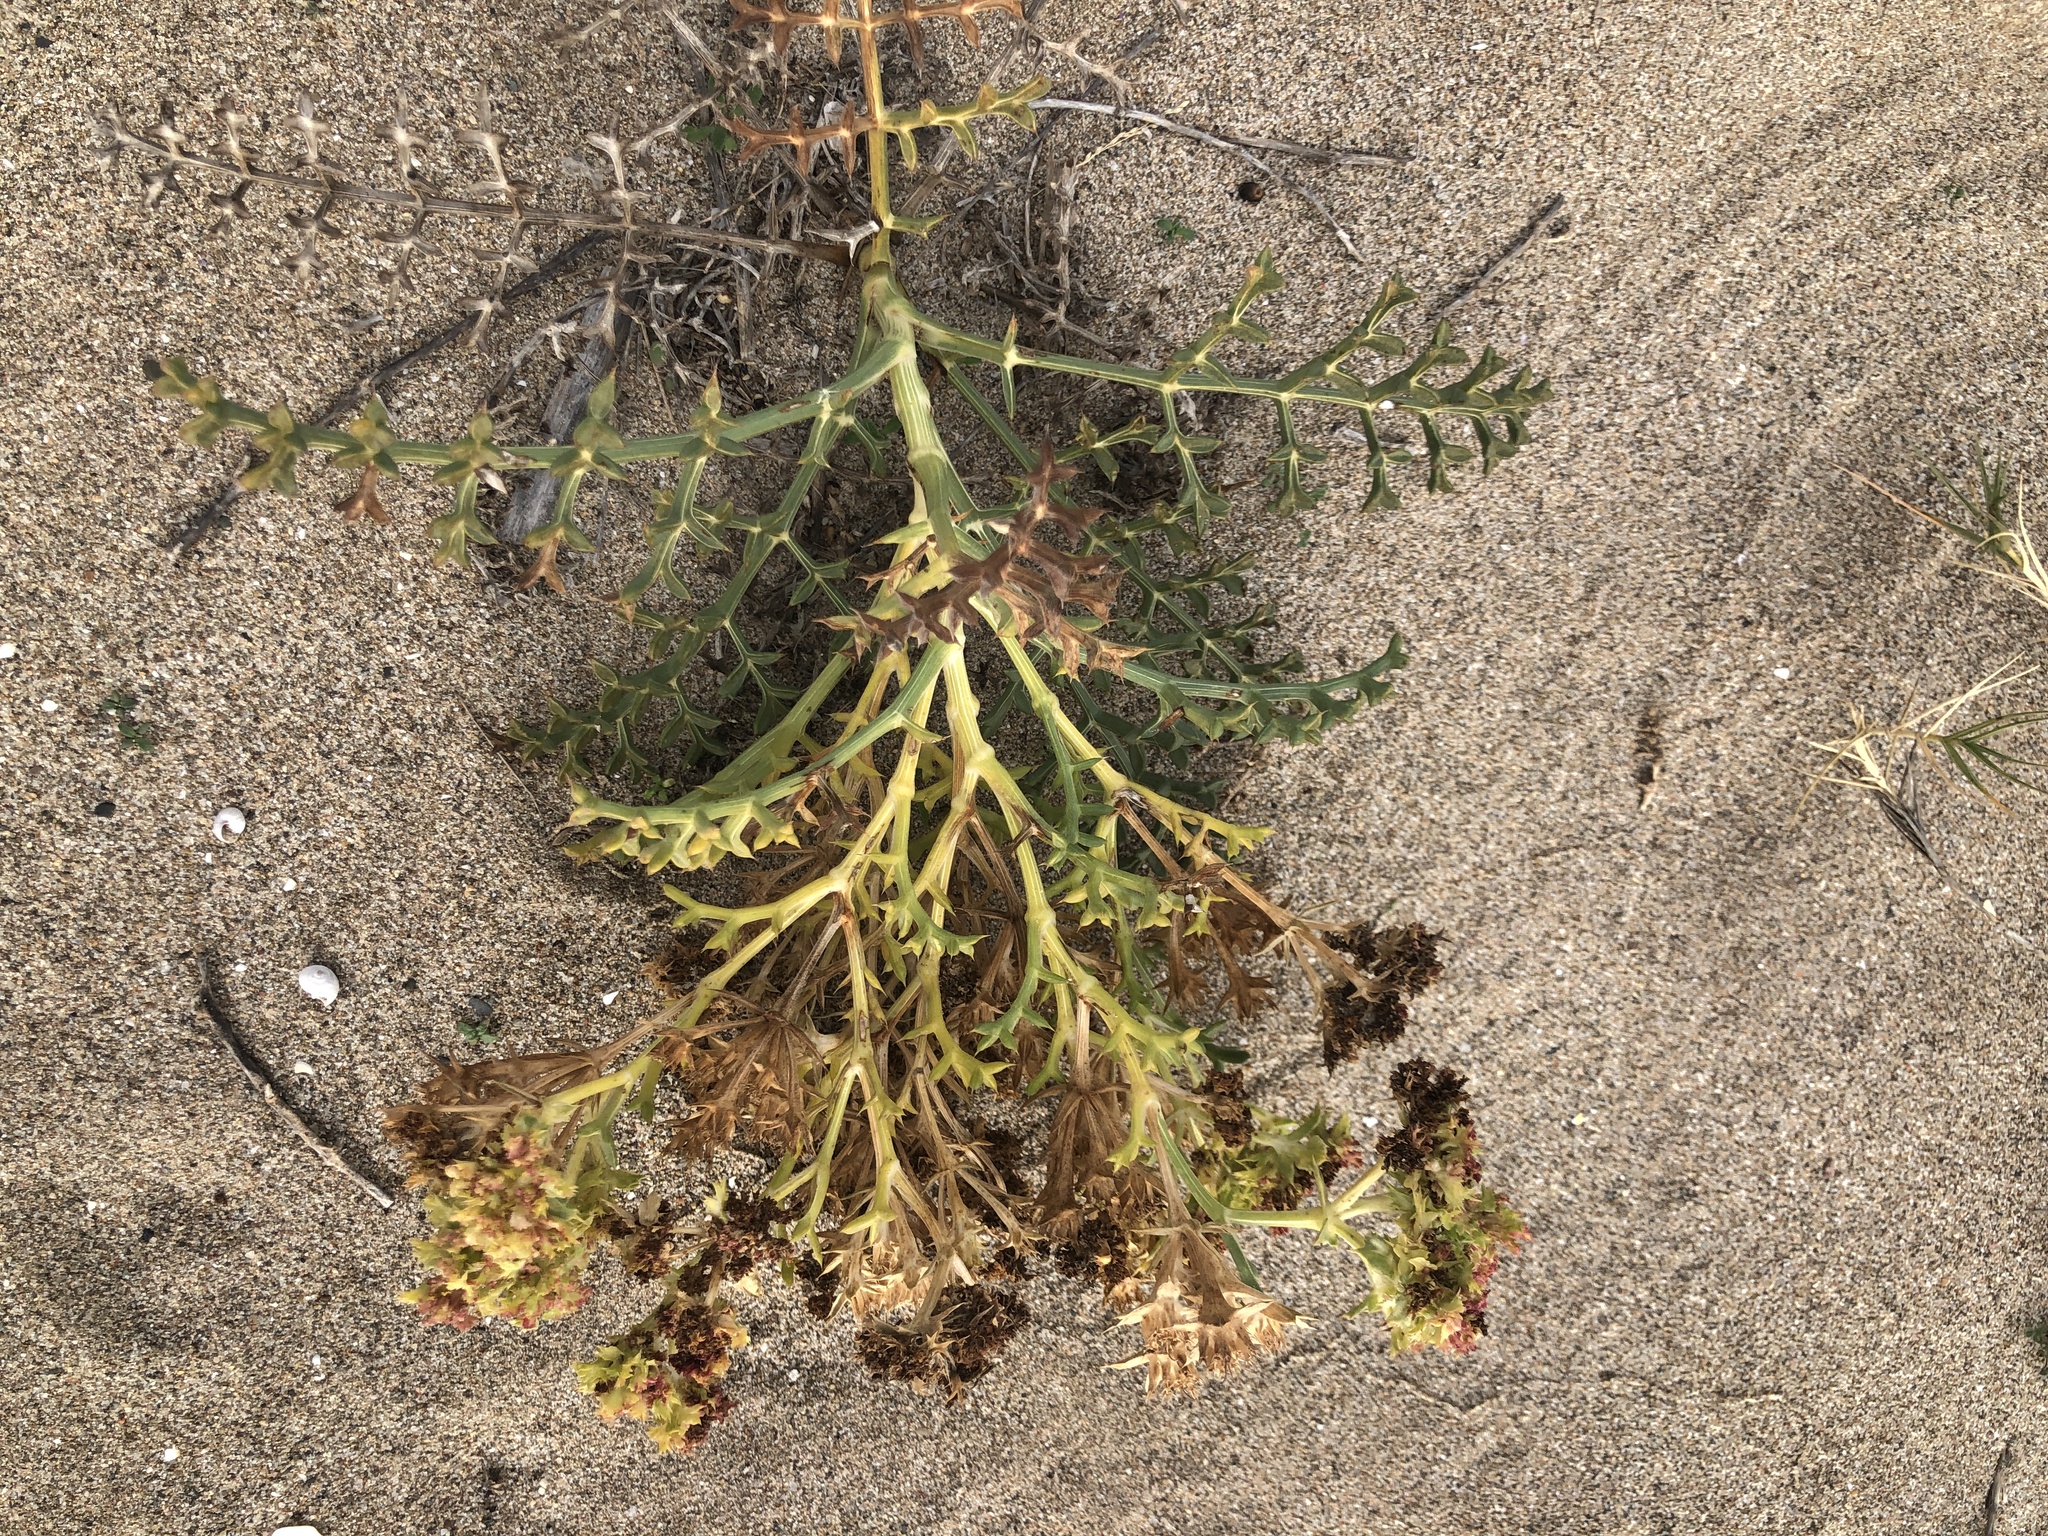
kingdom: Plantae
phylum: Tracheophyta
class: Magnoliopsida
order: Apiales
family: Apiaceae
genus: Echinophora
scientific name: Echinophora spinosa
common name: Prickly samphire
